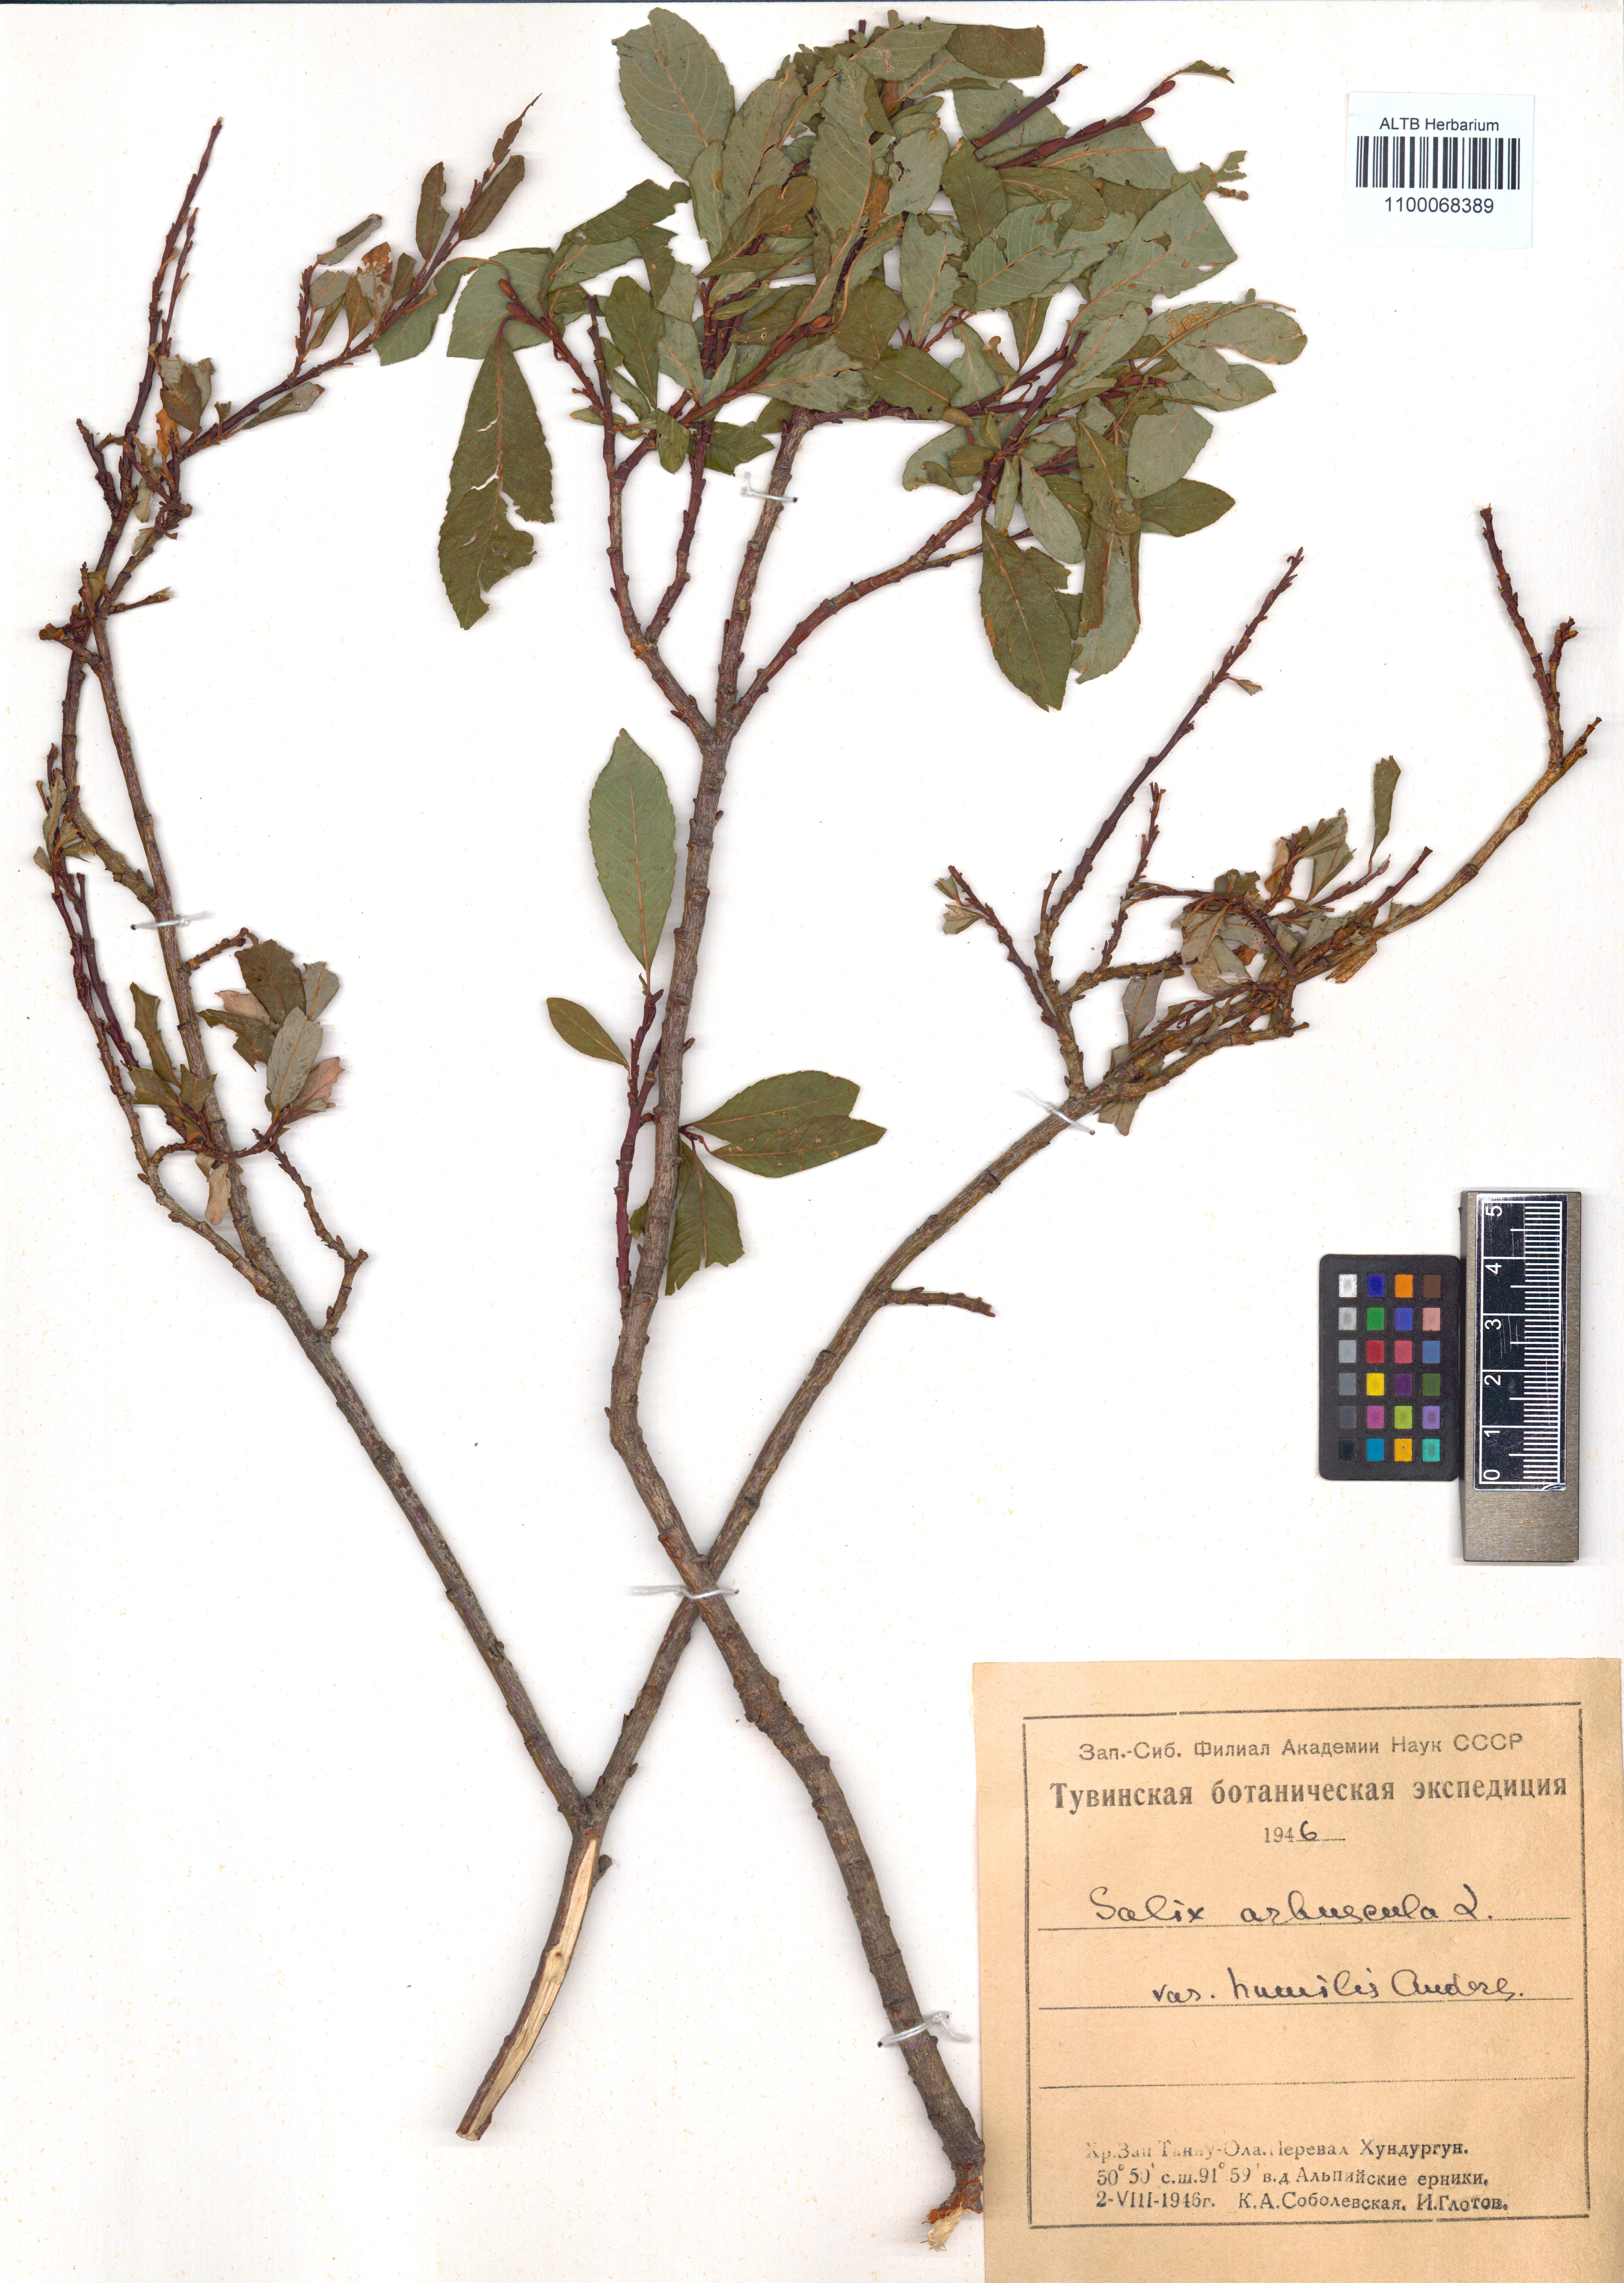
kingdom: Plantae
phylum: Tracheophyta
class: Magnoliopsida
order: Malpighiales
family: Salicaceae
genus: Salix
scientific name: Salix arbuscula
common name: Mountain willow
